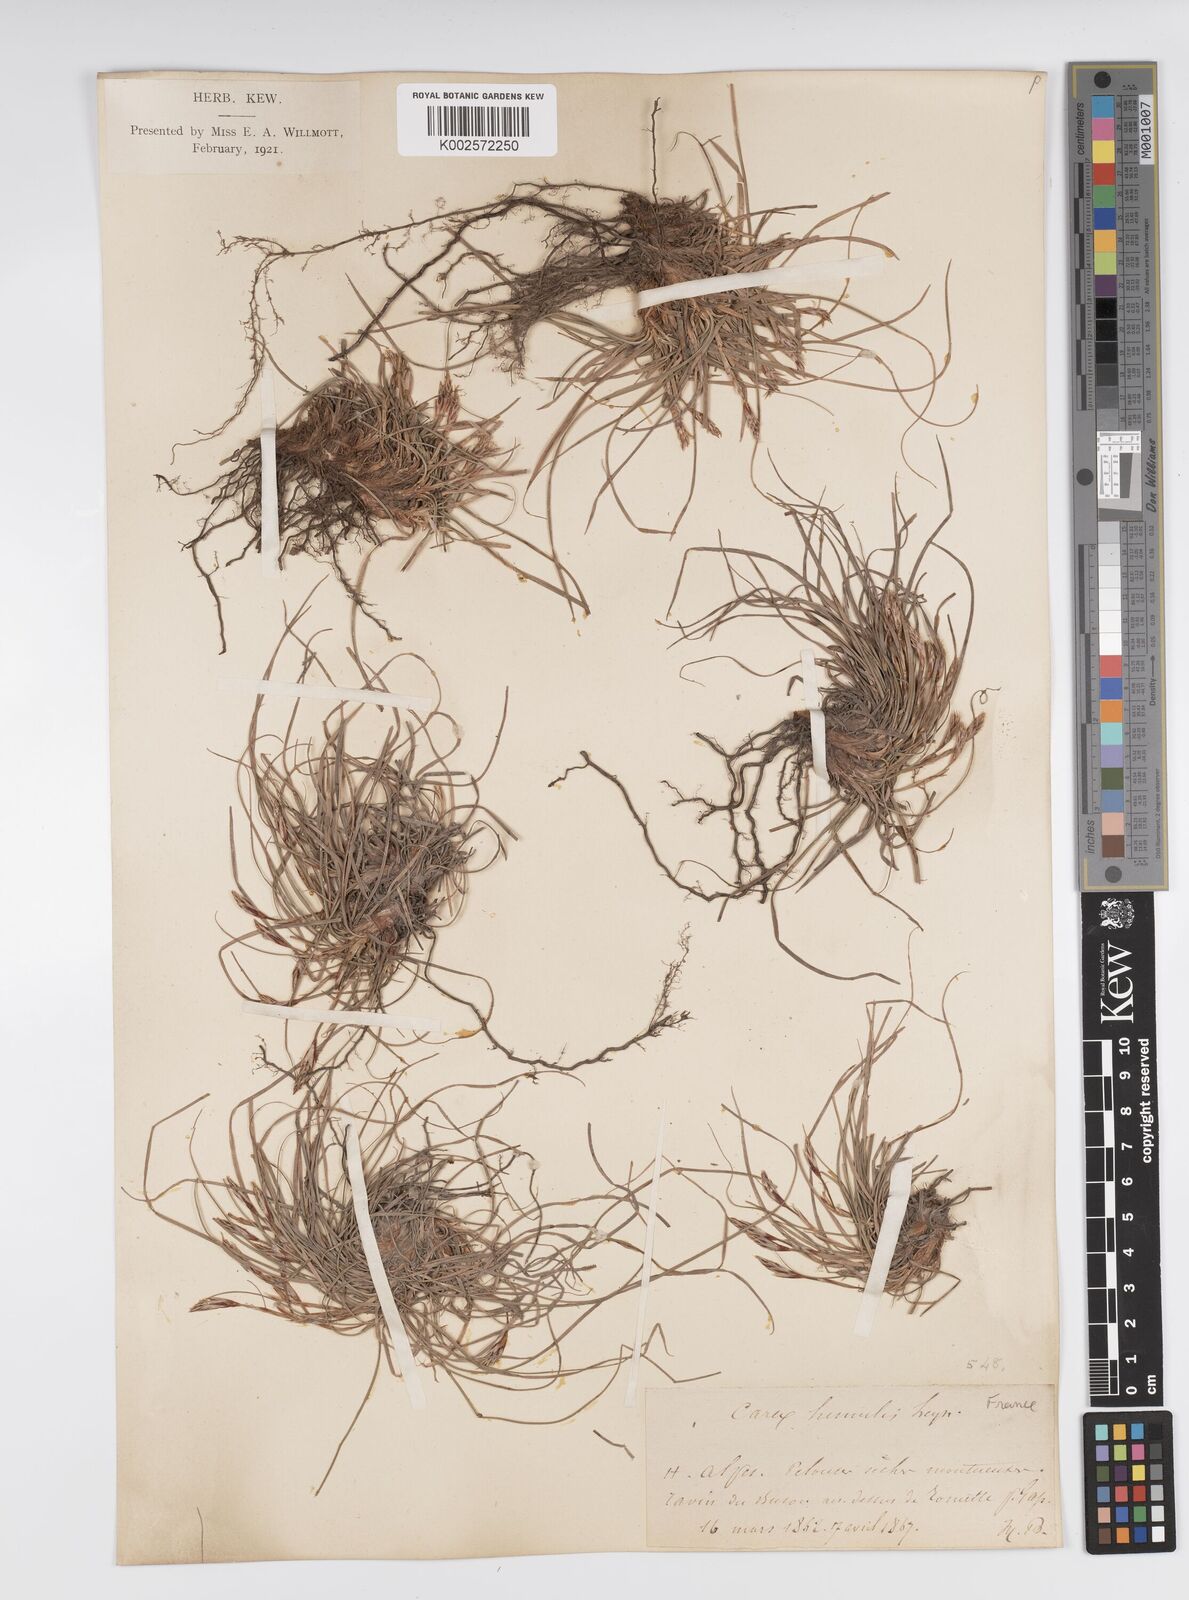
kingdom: Plantae
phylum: Tracheophyta
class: Liliopsida
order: Poales
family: Cyperaceae
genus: Carex
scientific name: Carex humilis
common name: Dwarf sedge
